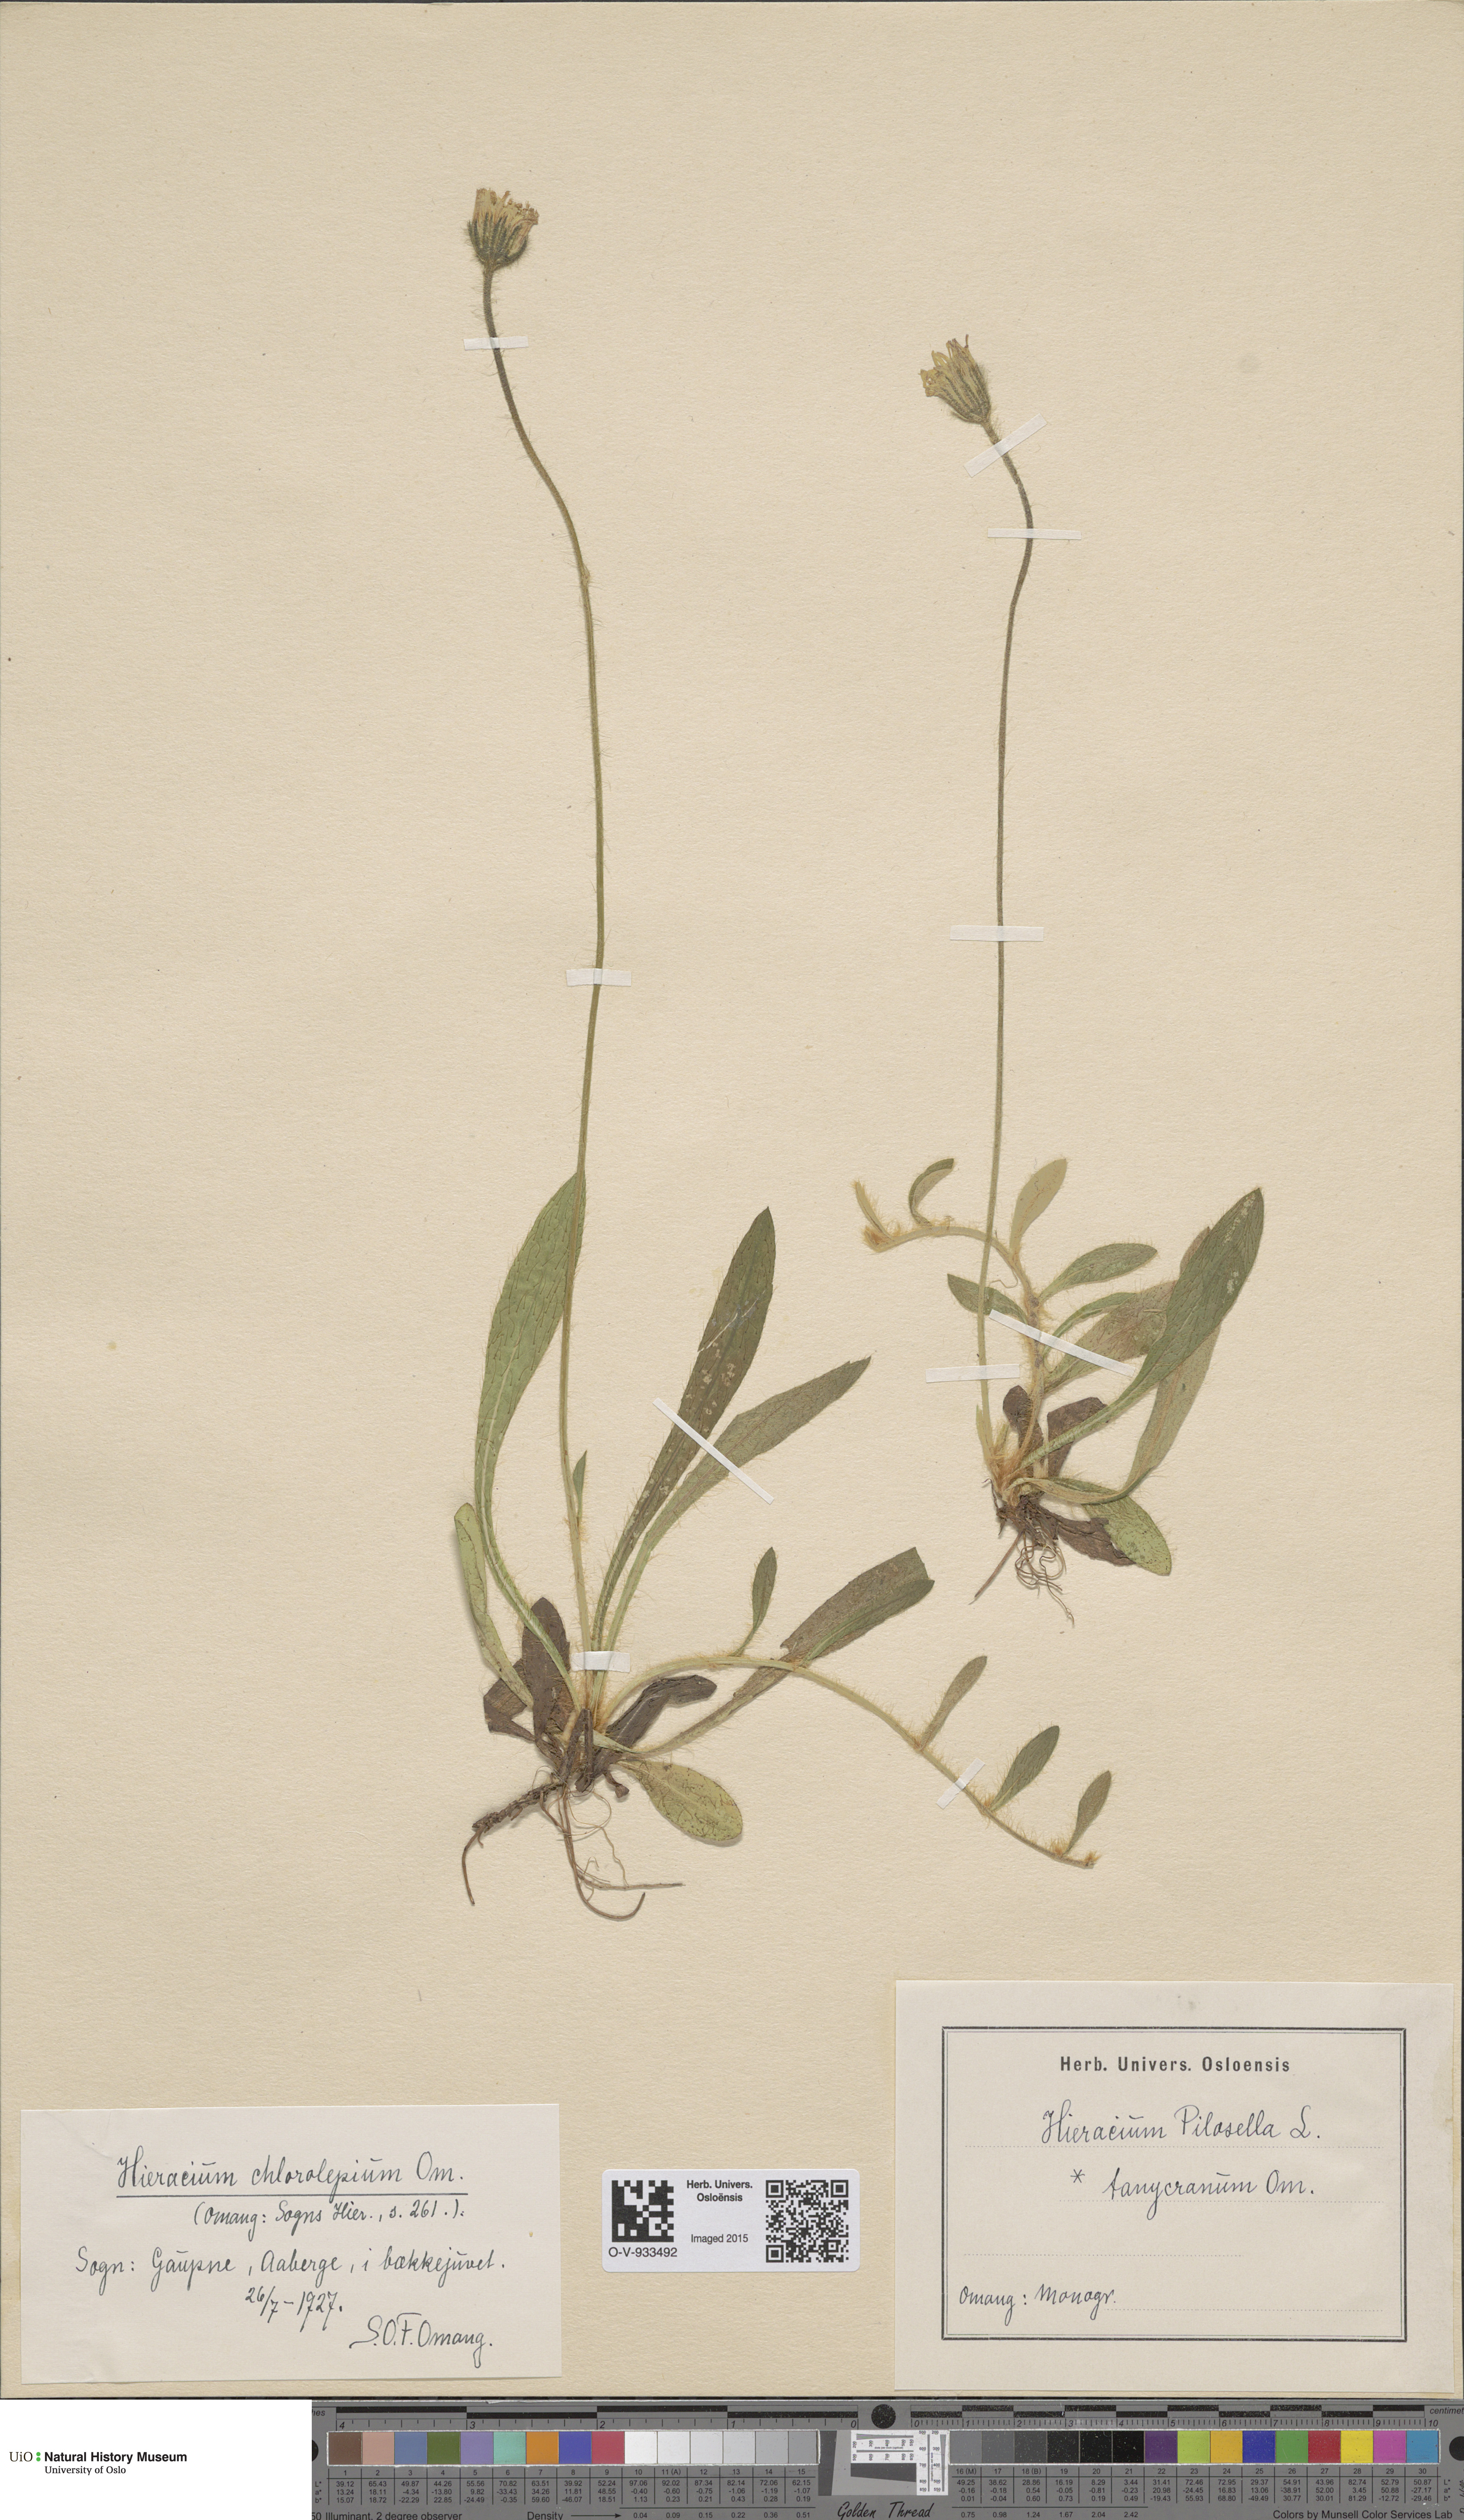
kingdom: Plantae
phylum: Tracheophyta
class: Magnoliopsida
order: Asterales
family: Asteraceae
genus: Pilosella
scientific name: Pilosella officinarum
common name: Mouse-ear hawkweed
